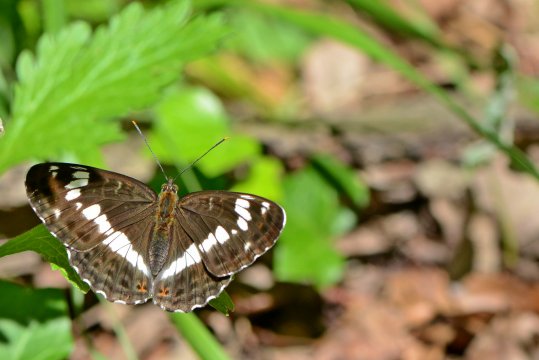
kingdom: Animalia
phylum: Arthropoda
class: Insecta
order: Lepidoptera
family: Nymphalidae
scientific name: Nymphalidae
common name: White Admiral
